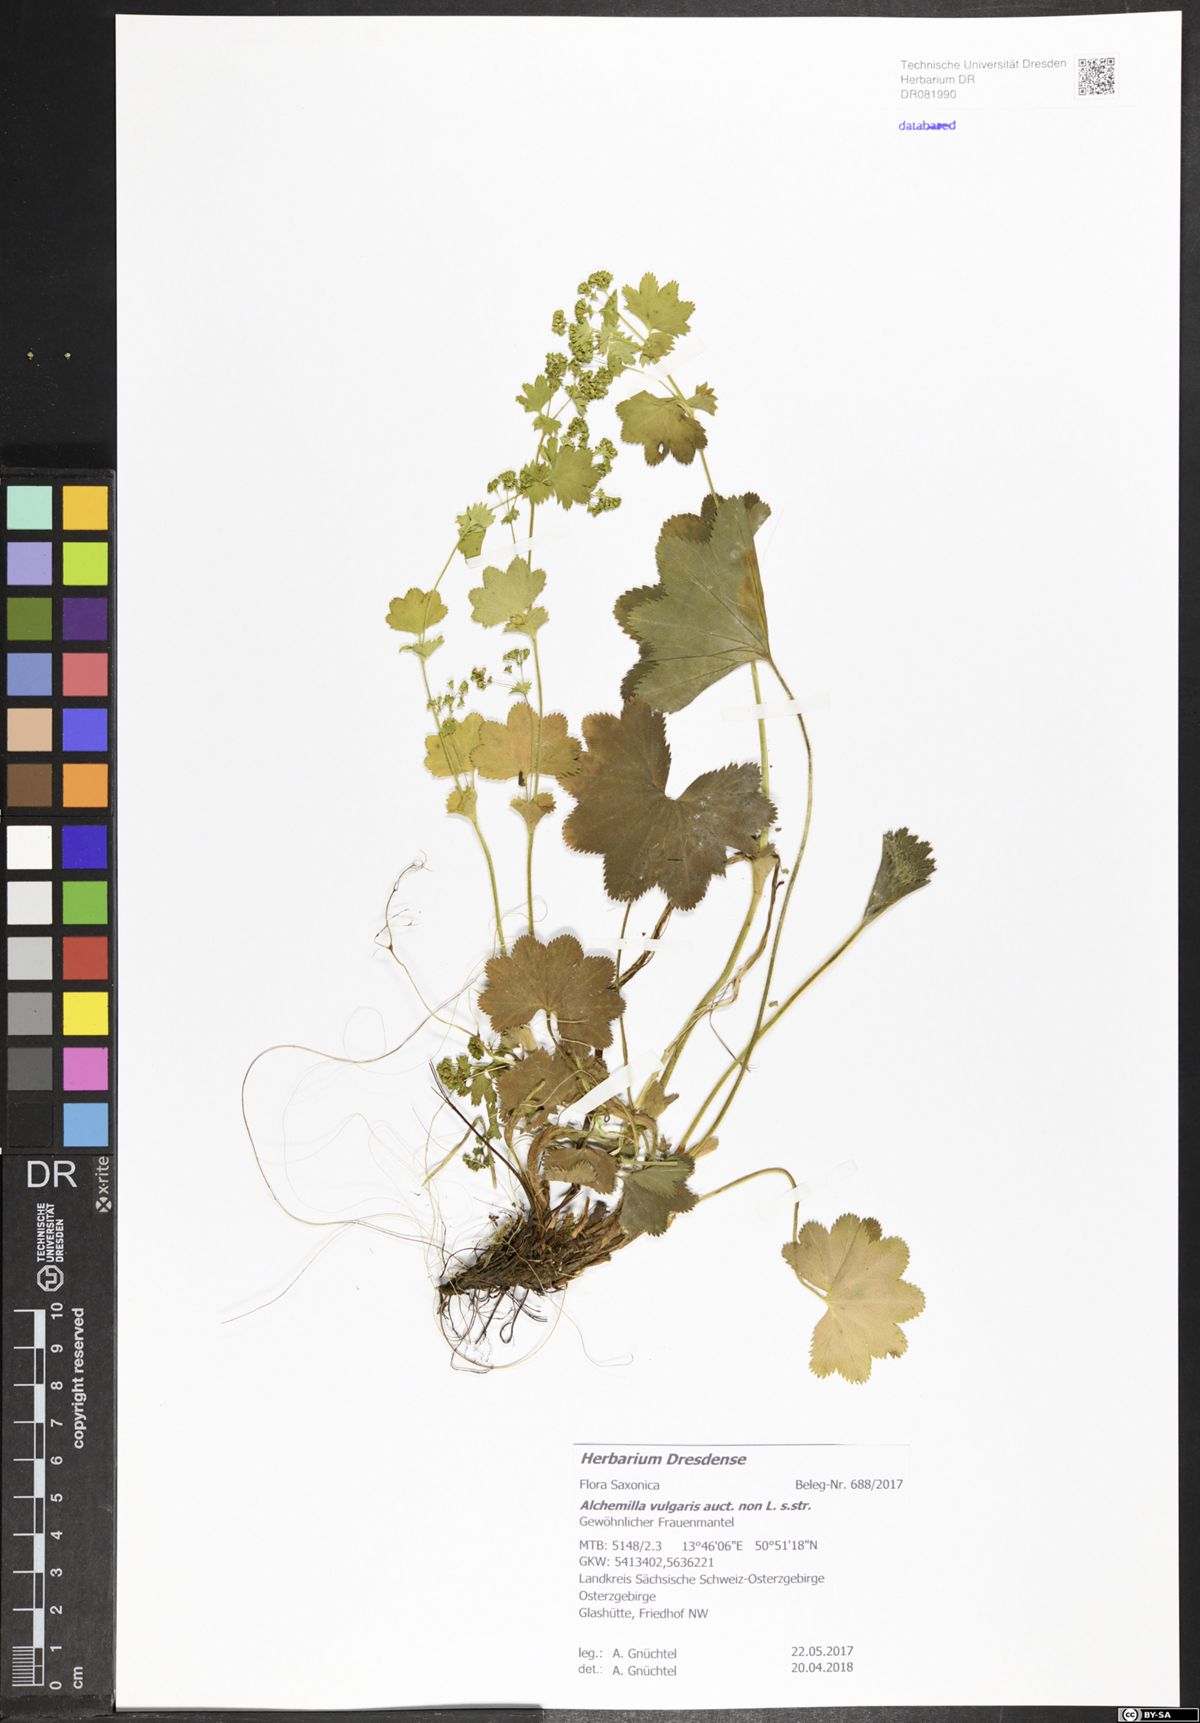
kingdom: Plantae
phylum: Tracheophyta
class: Magnoliopsida
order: Rosales
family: Rosaceae
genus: Alchemilla
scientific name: Alchemilla vulgaris
